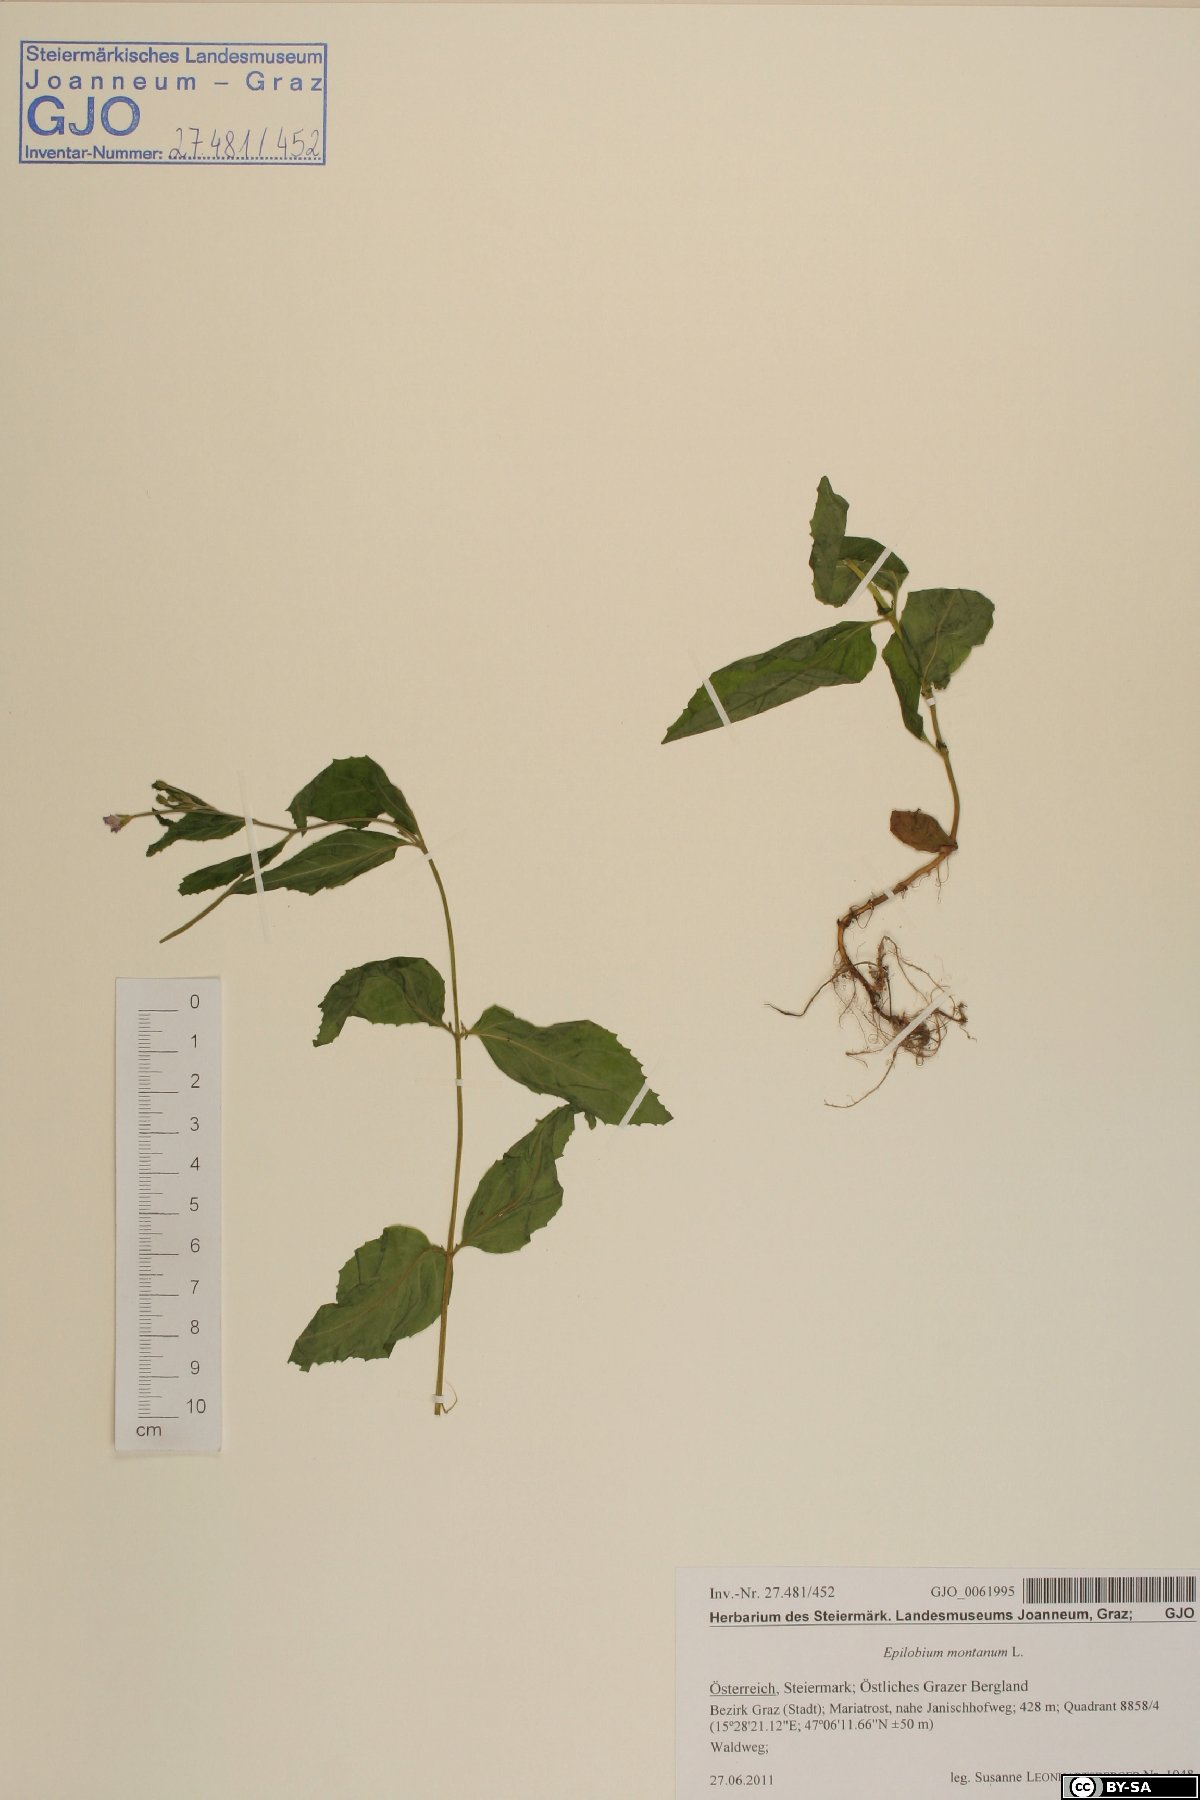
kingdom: Plantae
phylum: Tracheophyta
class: Magnoliopsida
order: Myrtales
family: Onagraceae
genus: Epilobium
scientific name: Epilobium montanum
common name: Broad-leaved willowherb
